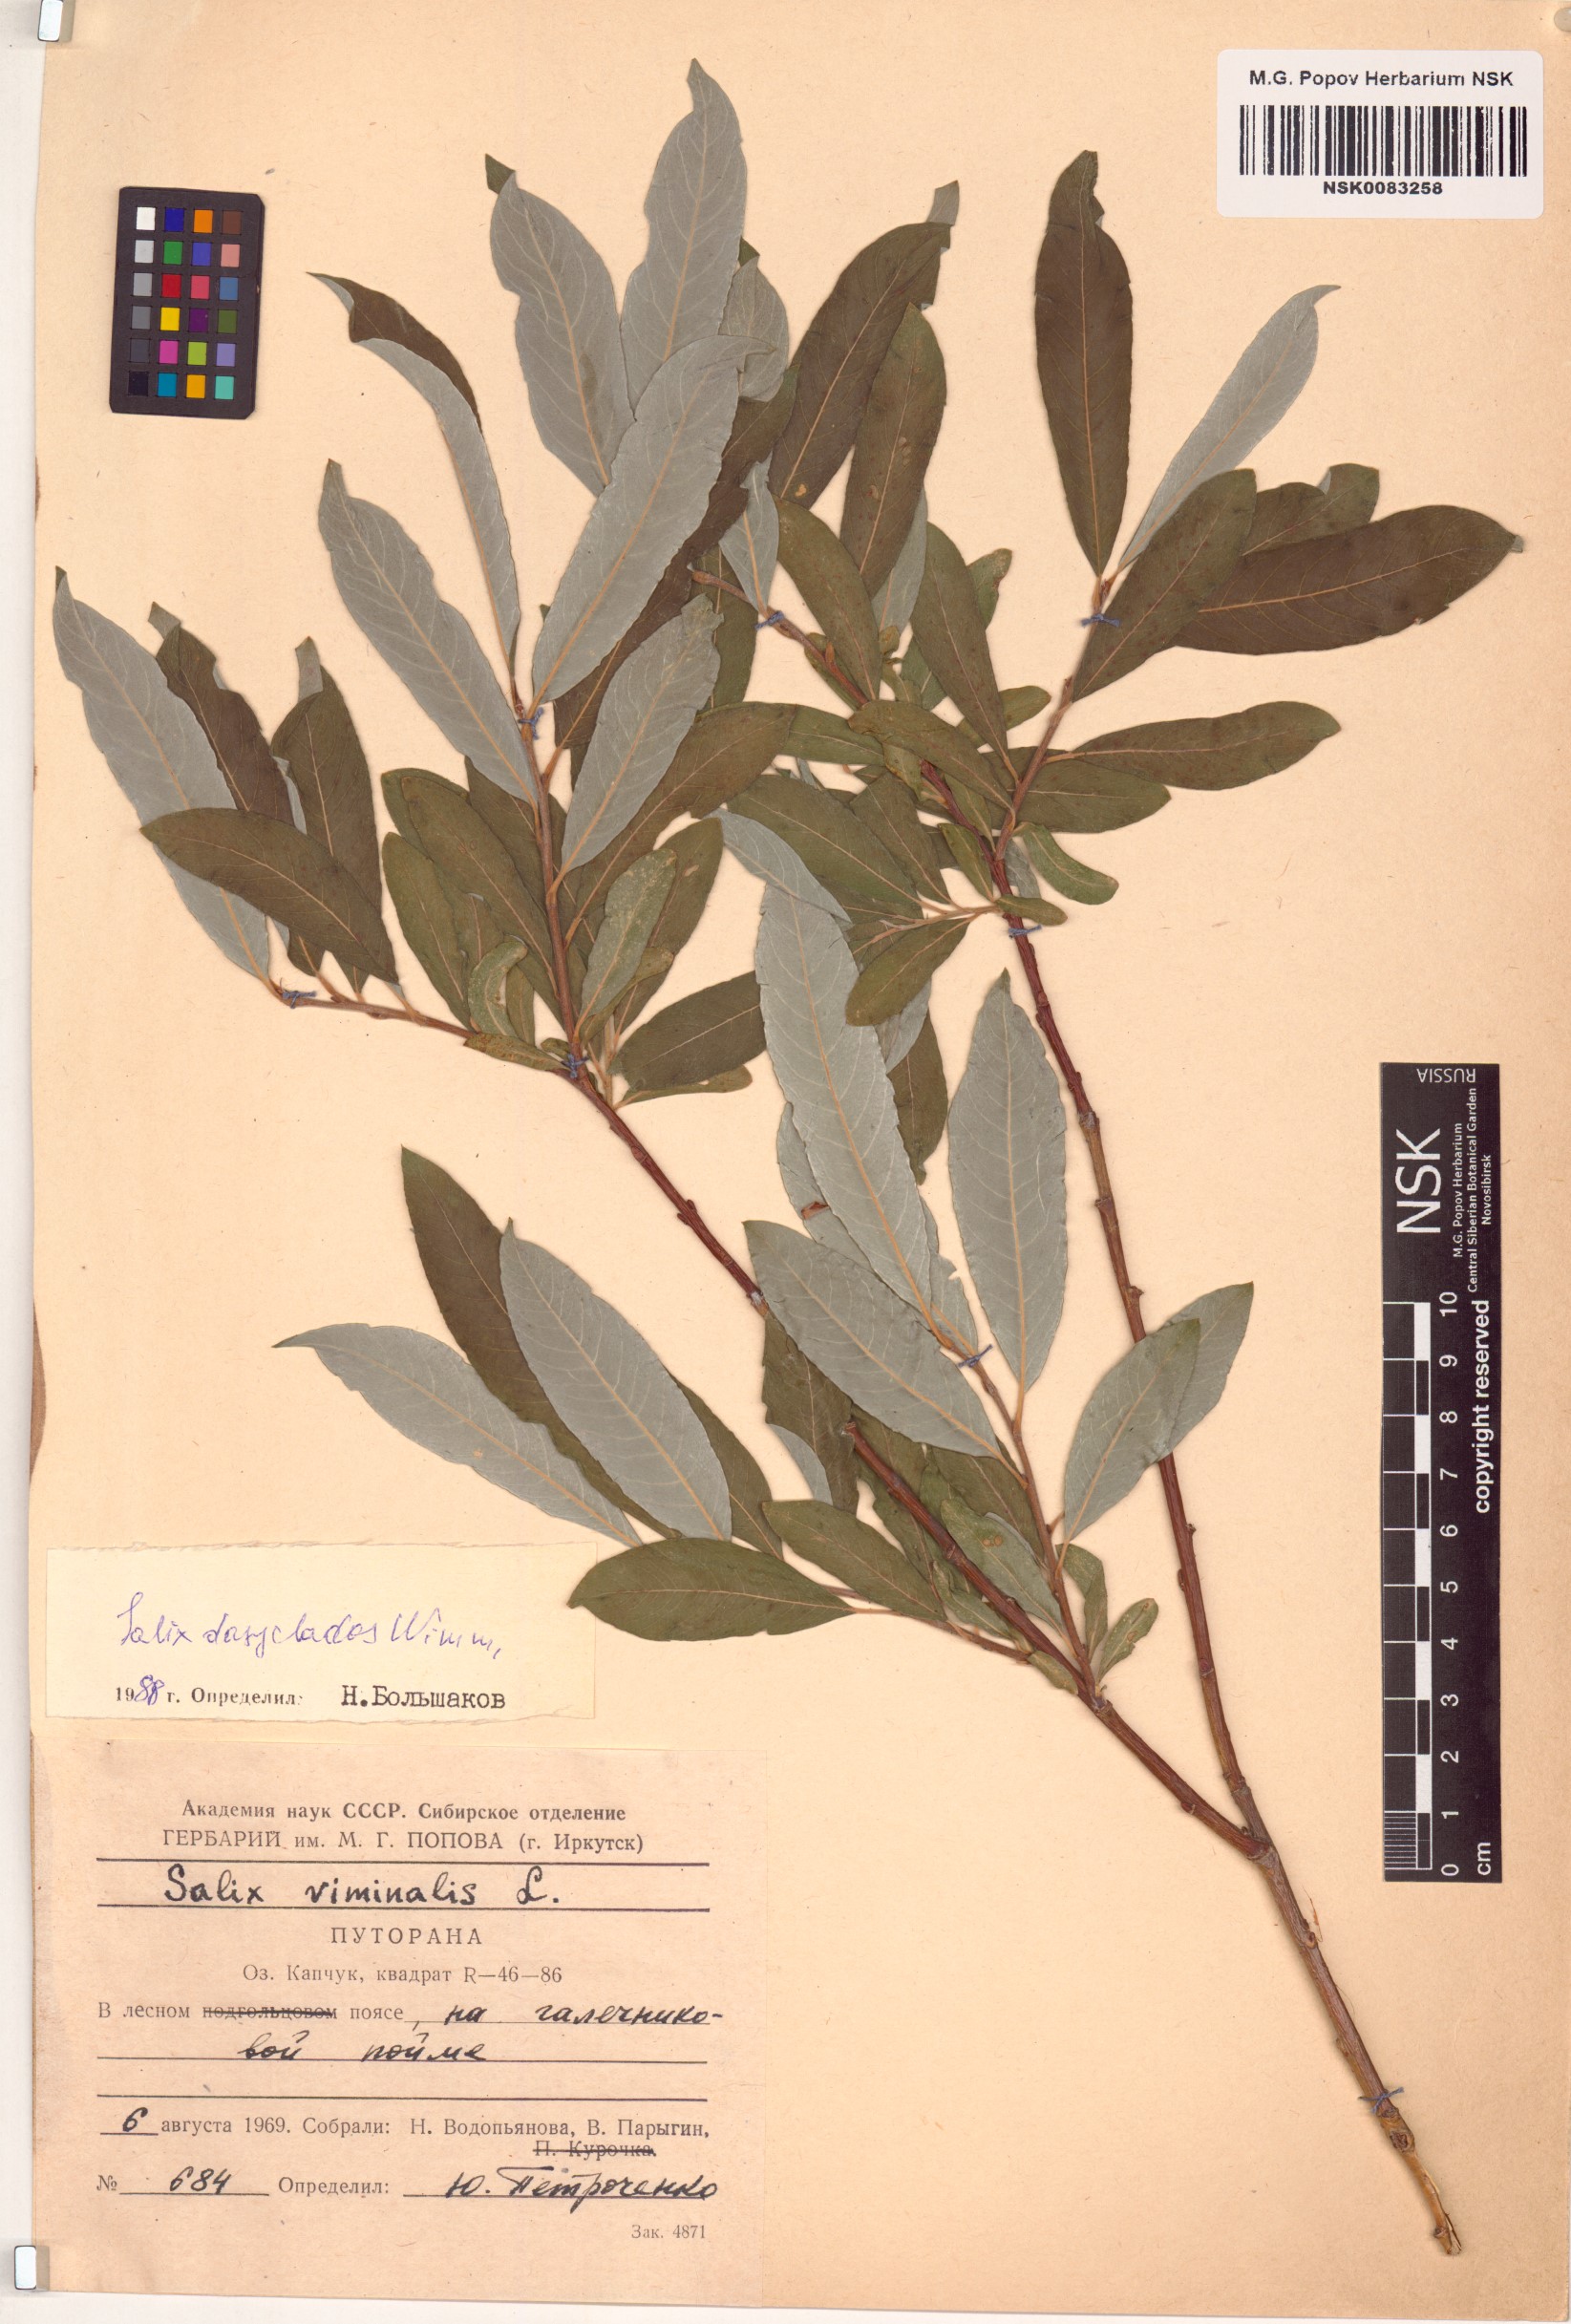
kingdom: Plantae
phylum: Tracheophyta
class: Magnoliopsida
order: Malpighiales
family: Salicaceae
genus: Salix
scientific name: Salix gmelinii
